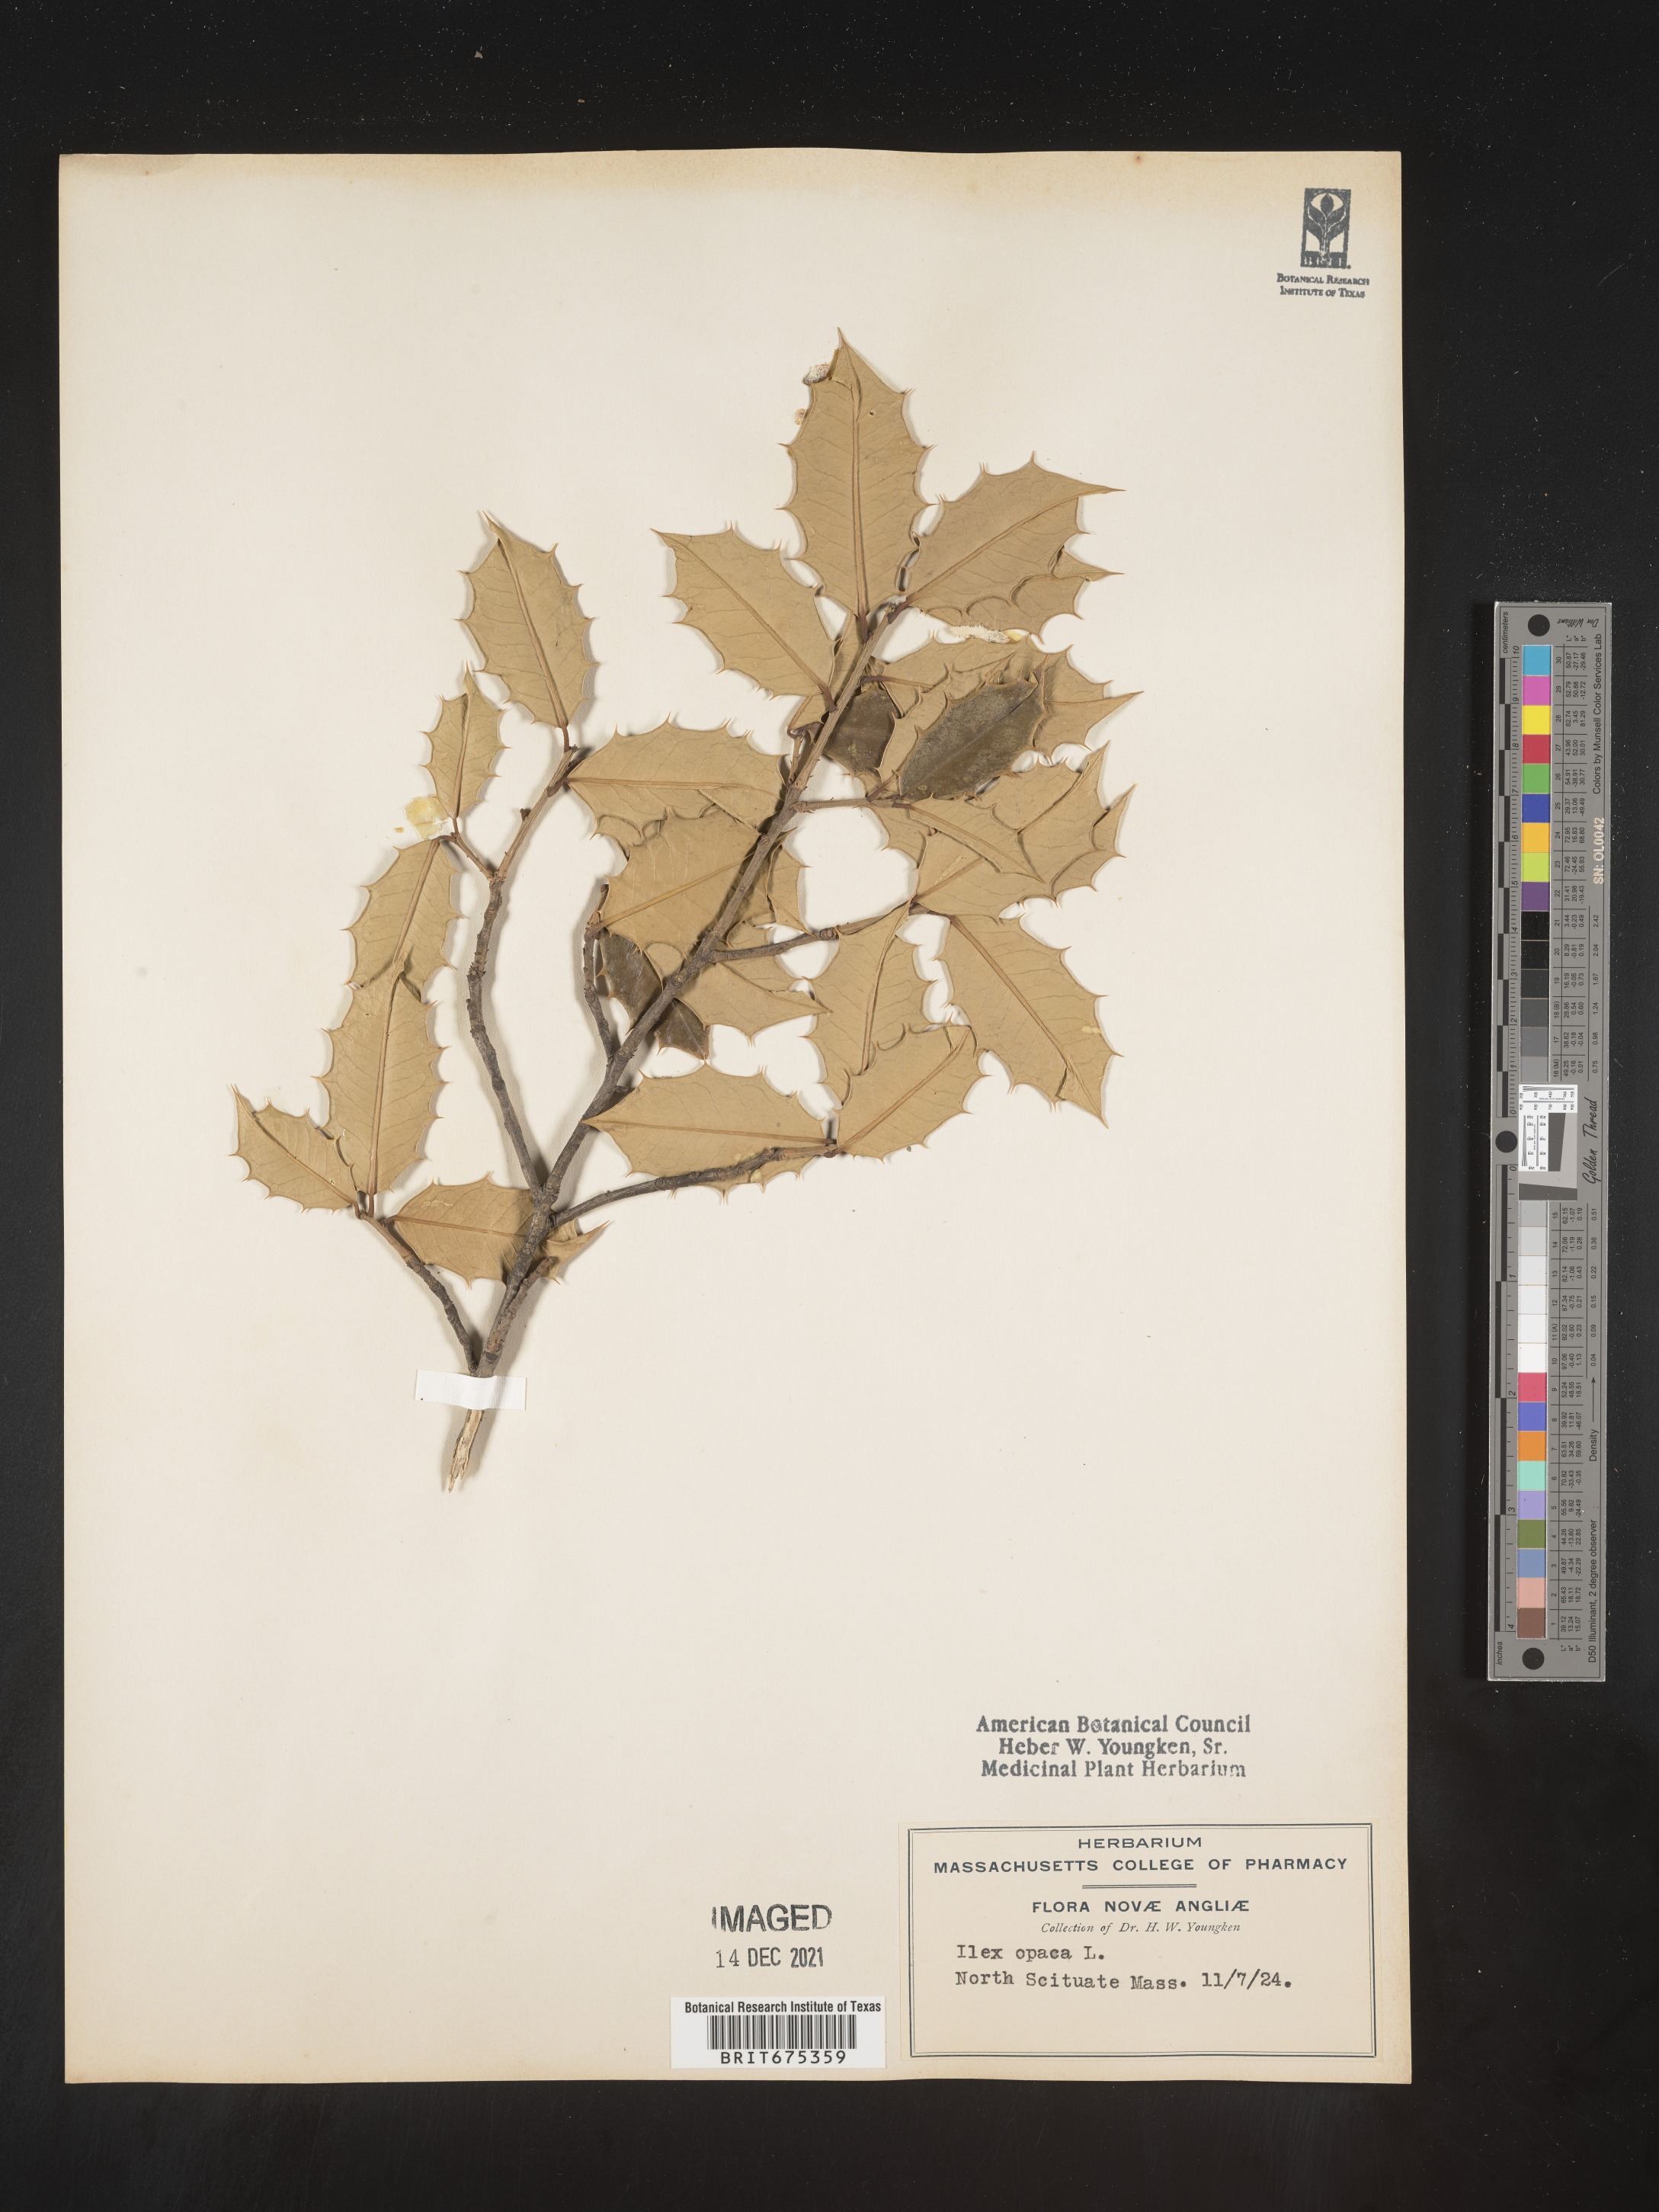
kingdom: Plantae
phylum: Tracheophyta
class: Magnoliopsida
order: Aquifoliales
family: Aquifoliaceae
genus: Ilex
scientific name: Ilex opaca
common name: American holly
